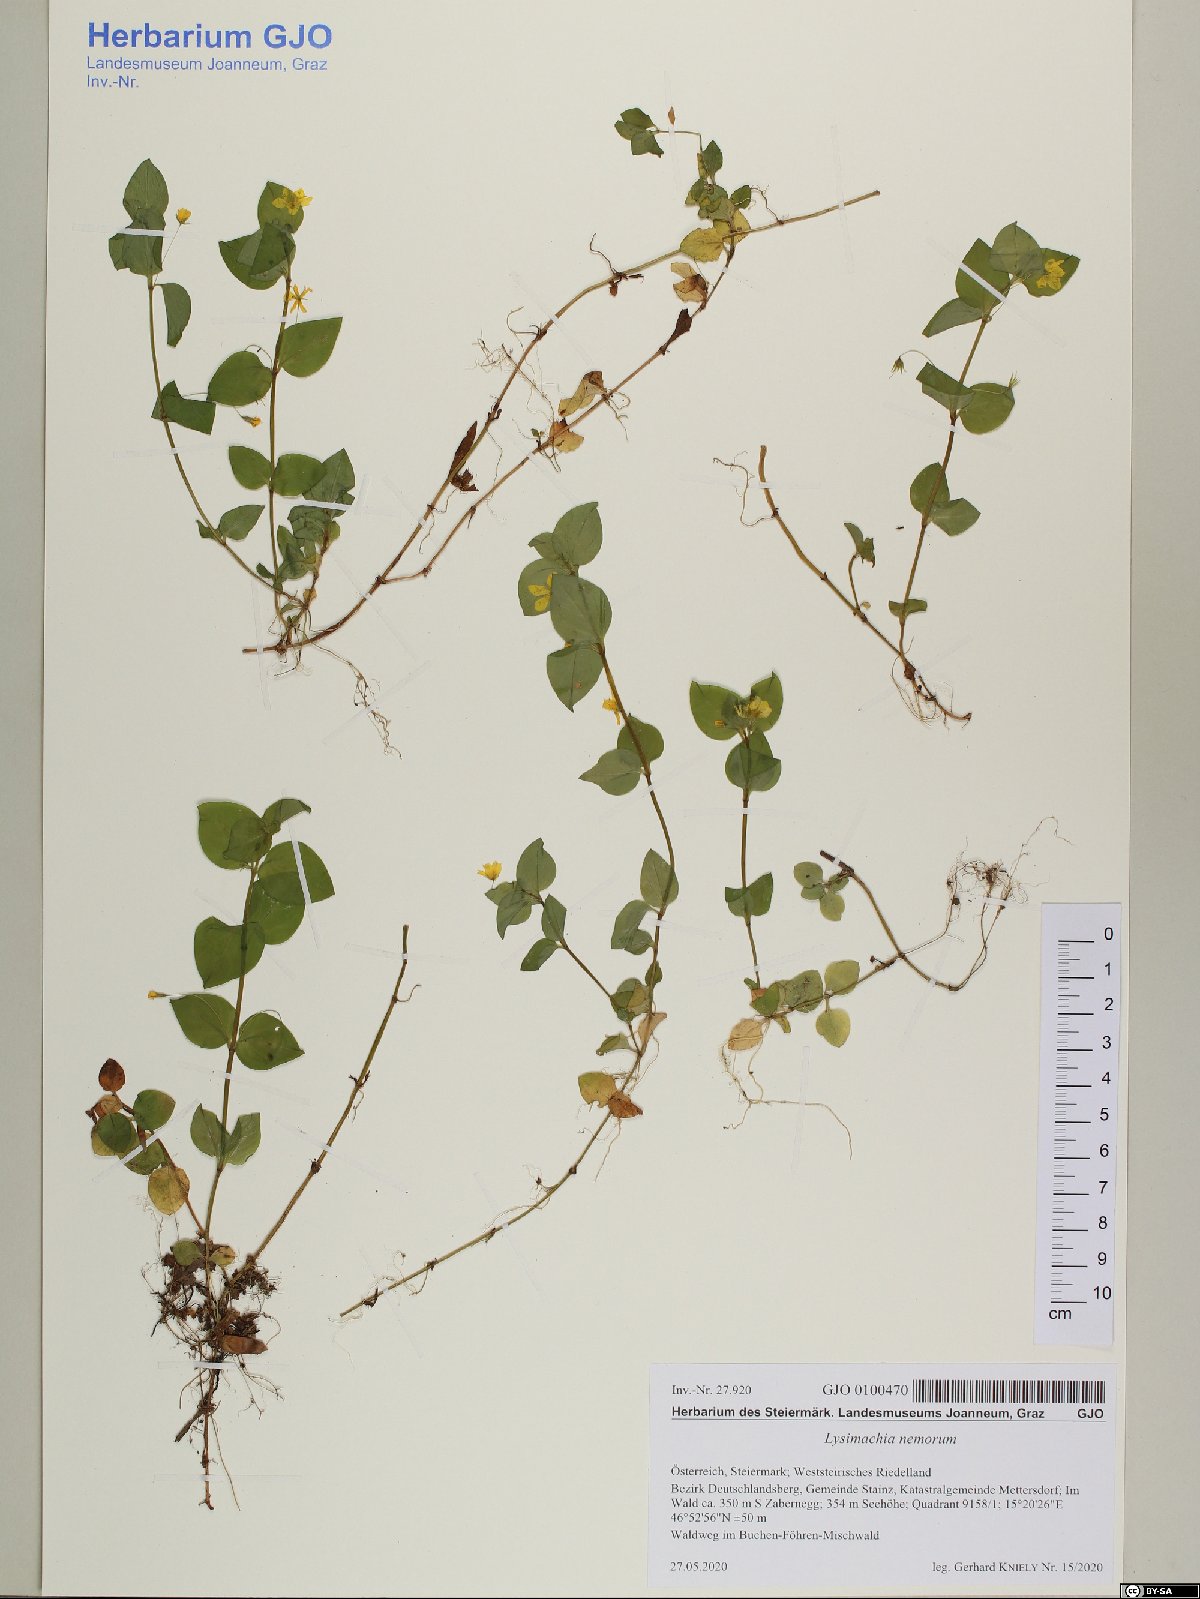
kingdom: Plantae
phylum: Tracheophyta
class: Magnoliopsida
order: Ericales
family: Primulaceae
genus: Lysimachia
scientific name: Lysimachia nemorum
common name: Yellow pimpernel
